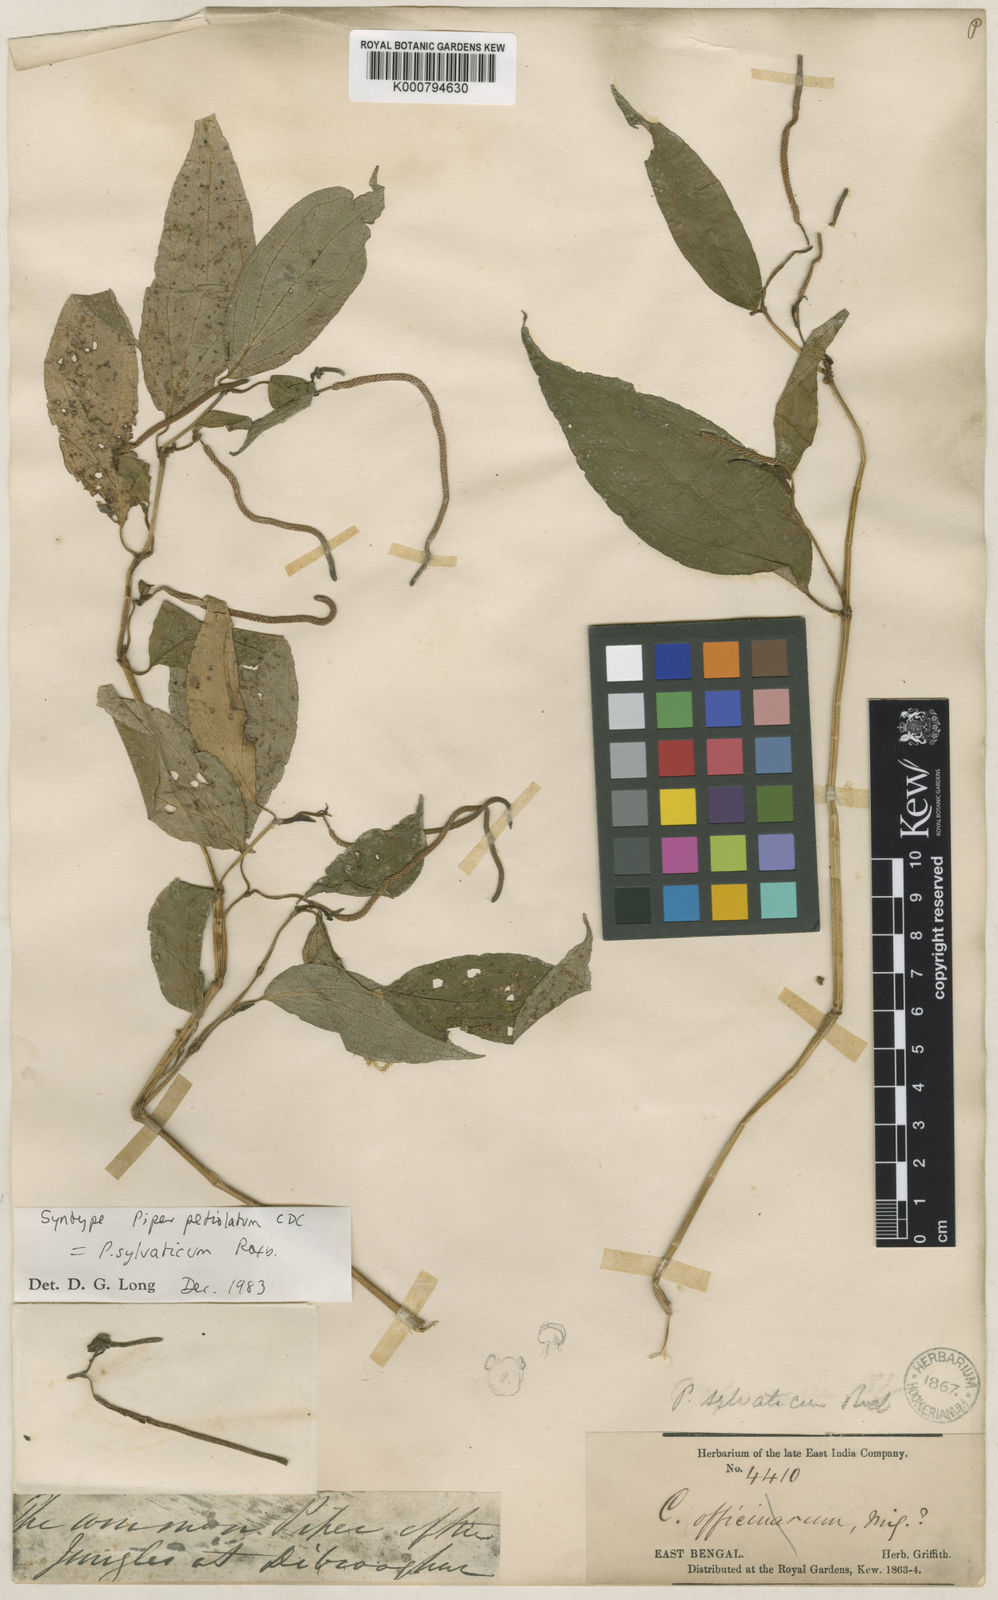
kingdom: Plantae
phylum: Tracheophyta
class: Magnoliopsida
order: Piperales
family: Piperaceae
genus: Piper
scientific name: Piper thomsonii
